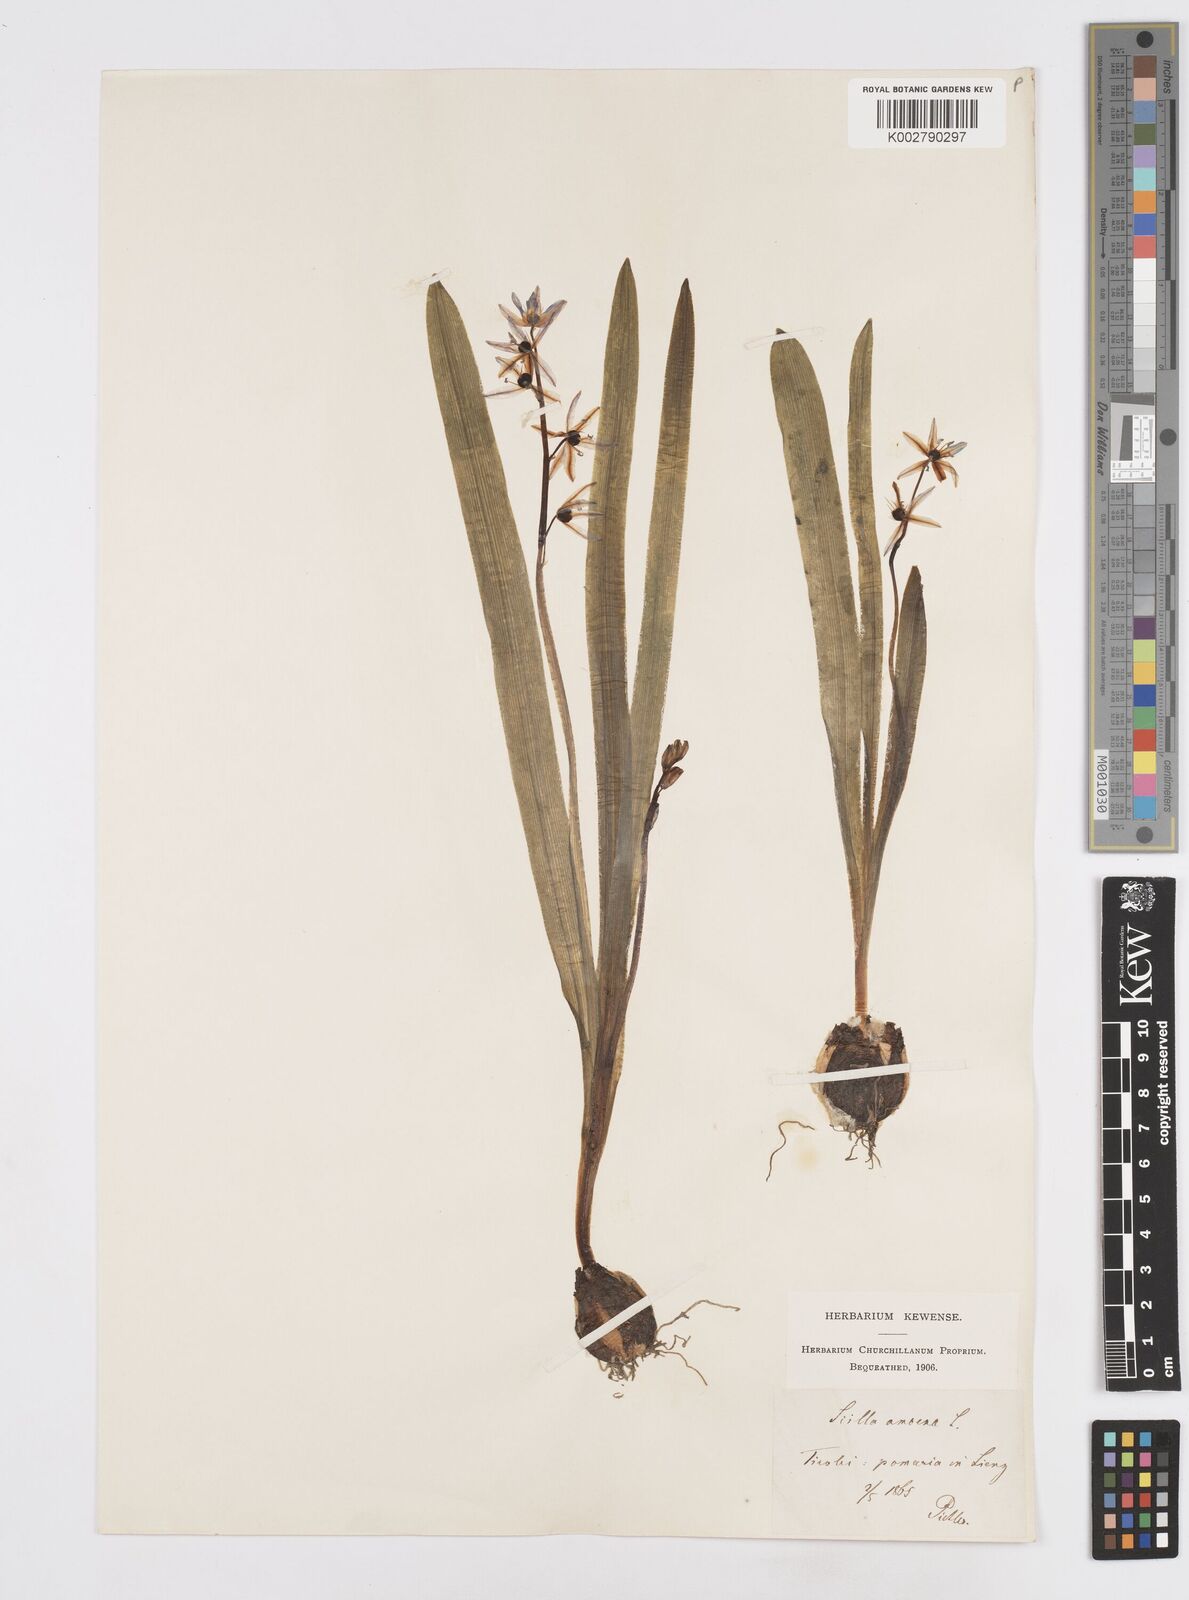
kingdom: Plantae
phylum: Tracheophyta
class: Liliopsida
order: Asparagales
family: Asparagaceae
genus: Scilla
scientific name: Scilla amoena
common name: Star-hyacinth
